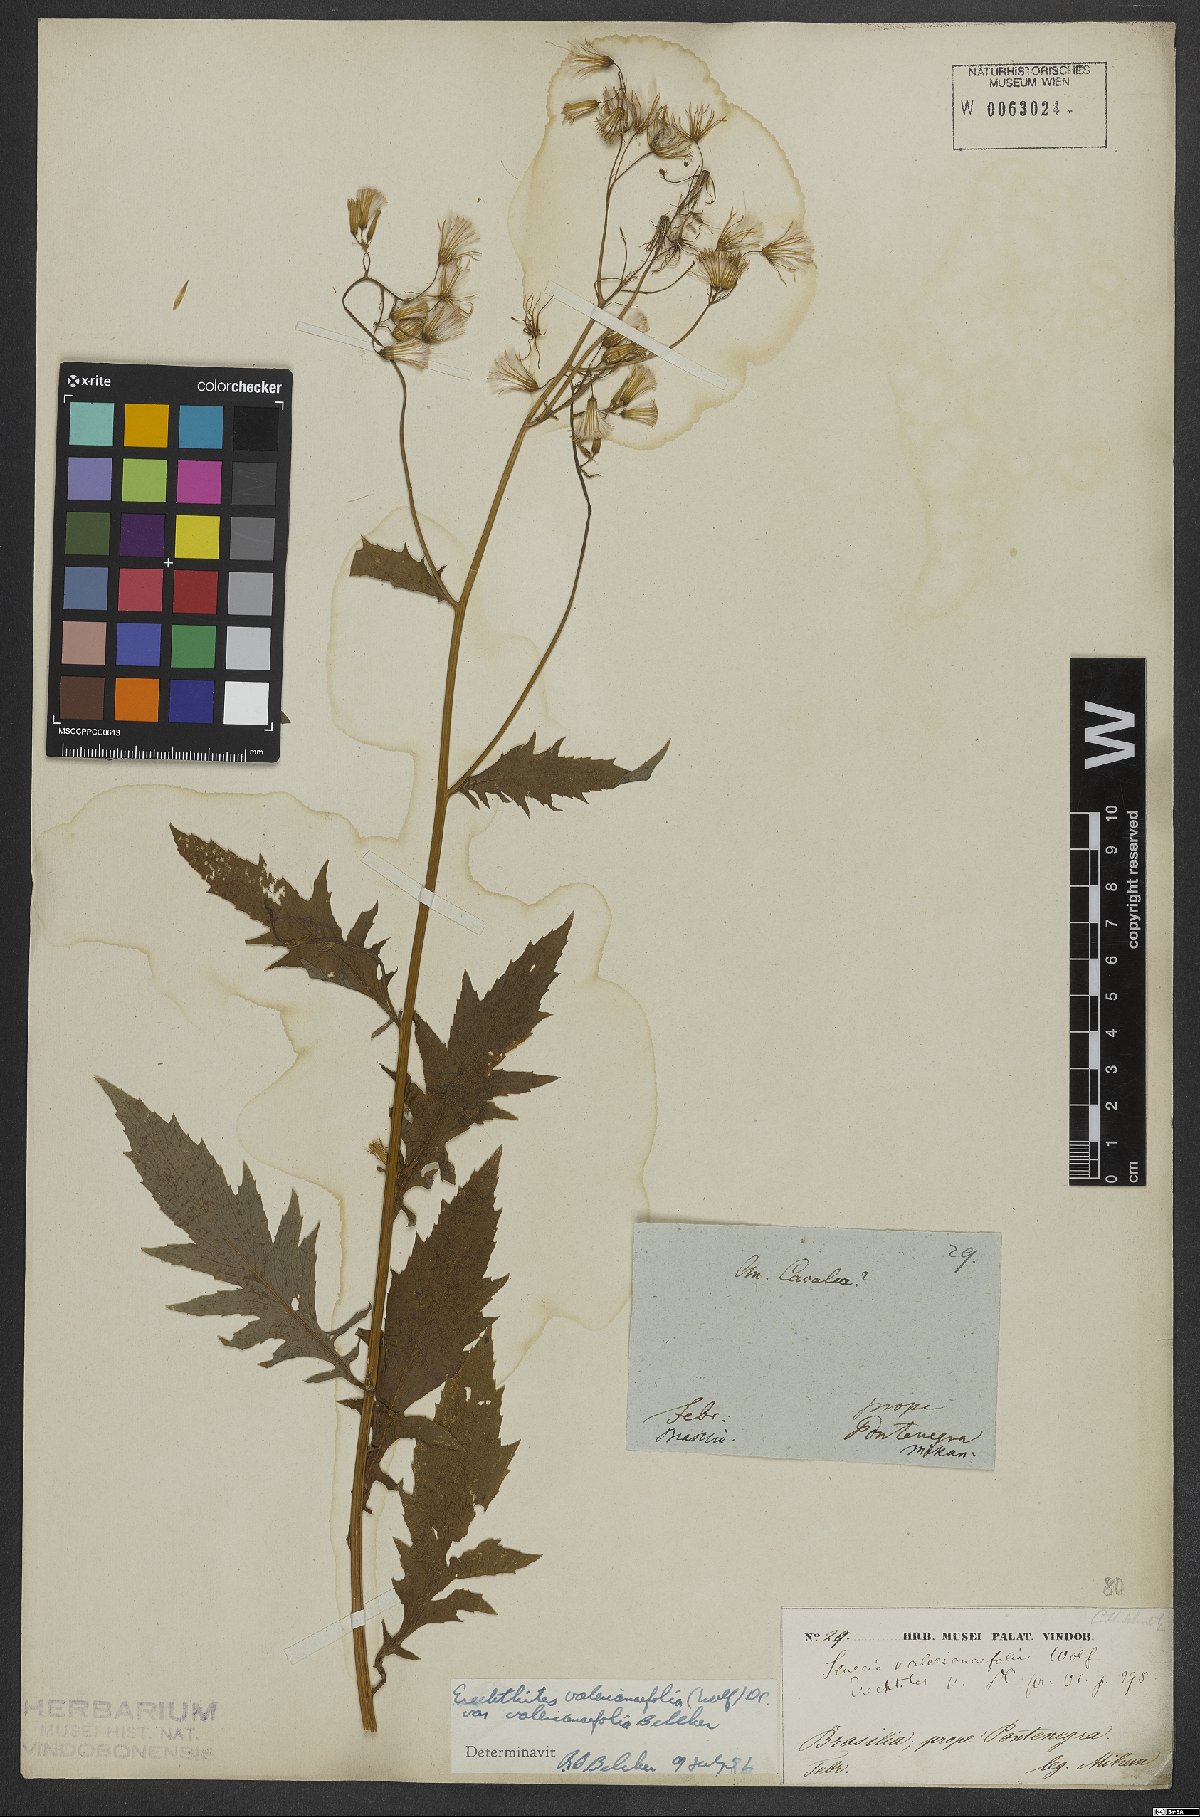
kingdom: Plantae
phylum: Tracheophyta
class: Magnoliopsida
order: Asterales
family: Asteraceae
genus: Erechtites
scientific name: Erechtites valerianifolius
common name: Tropical burnweed
